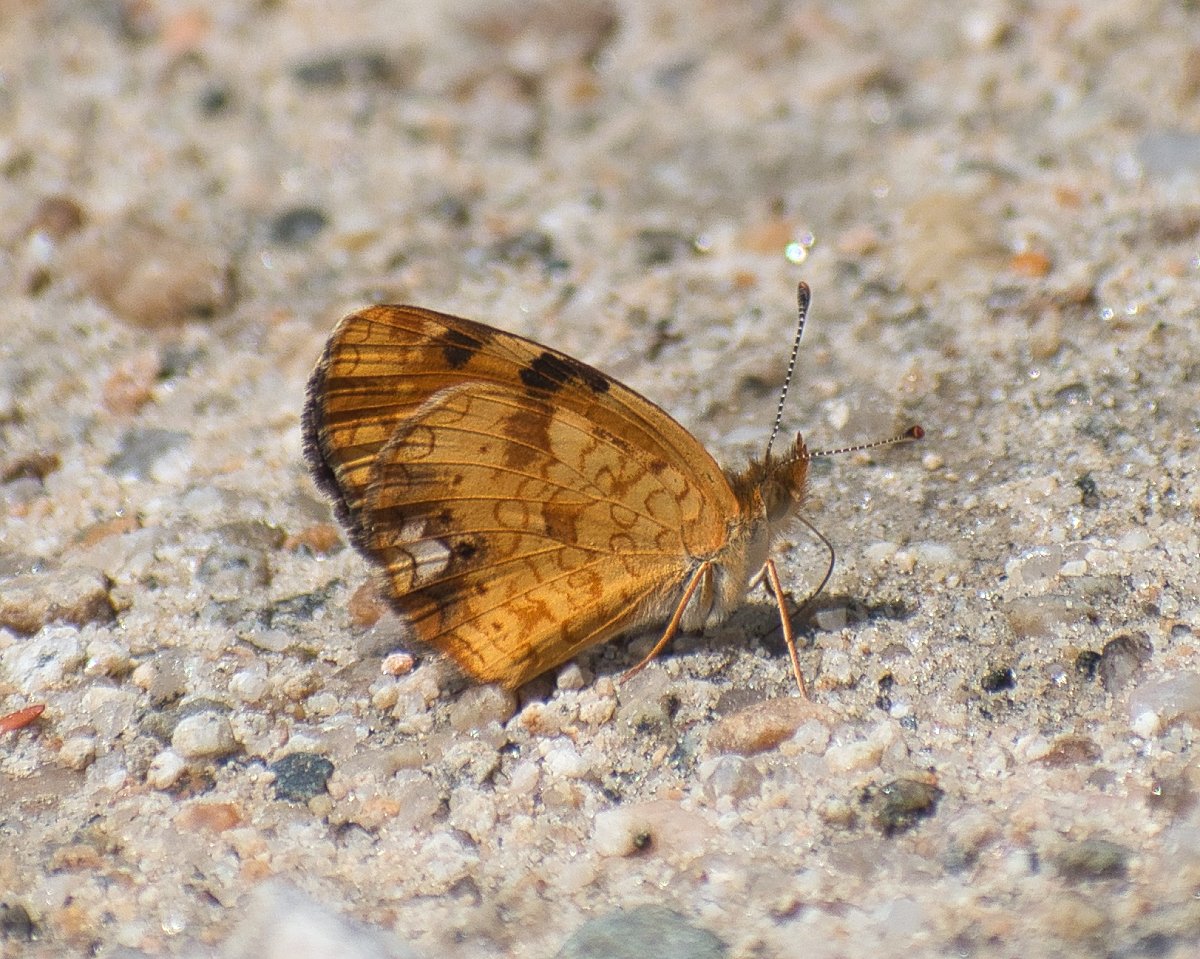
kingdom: Animalia
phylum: Arthropoda
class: Insecta
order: Lepidoptera
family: Nymphalidae
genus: Phyciodes
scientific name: Phyciodes tharos
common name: Northern Crescent
